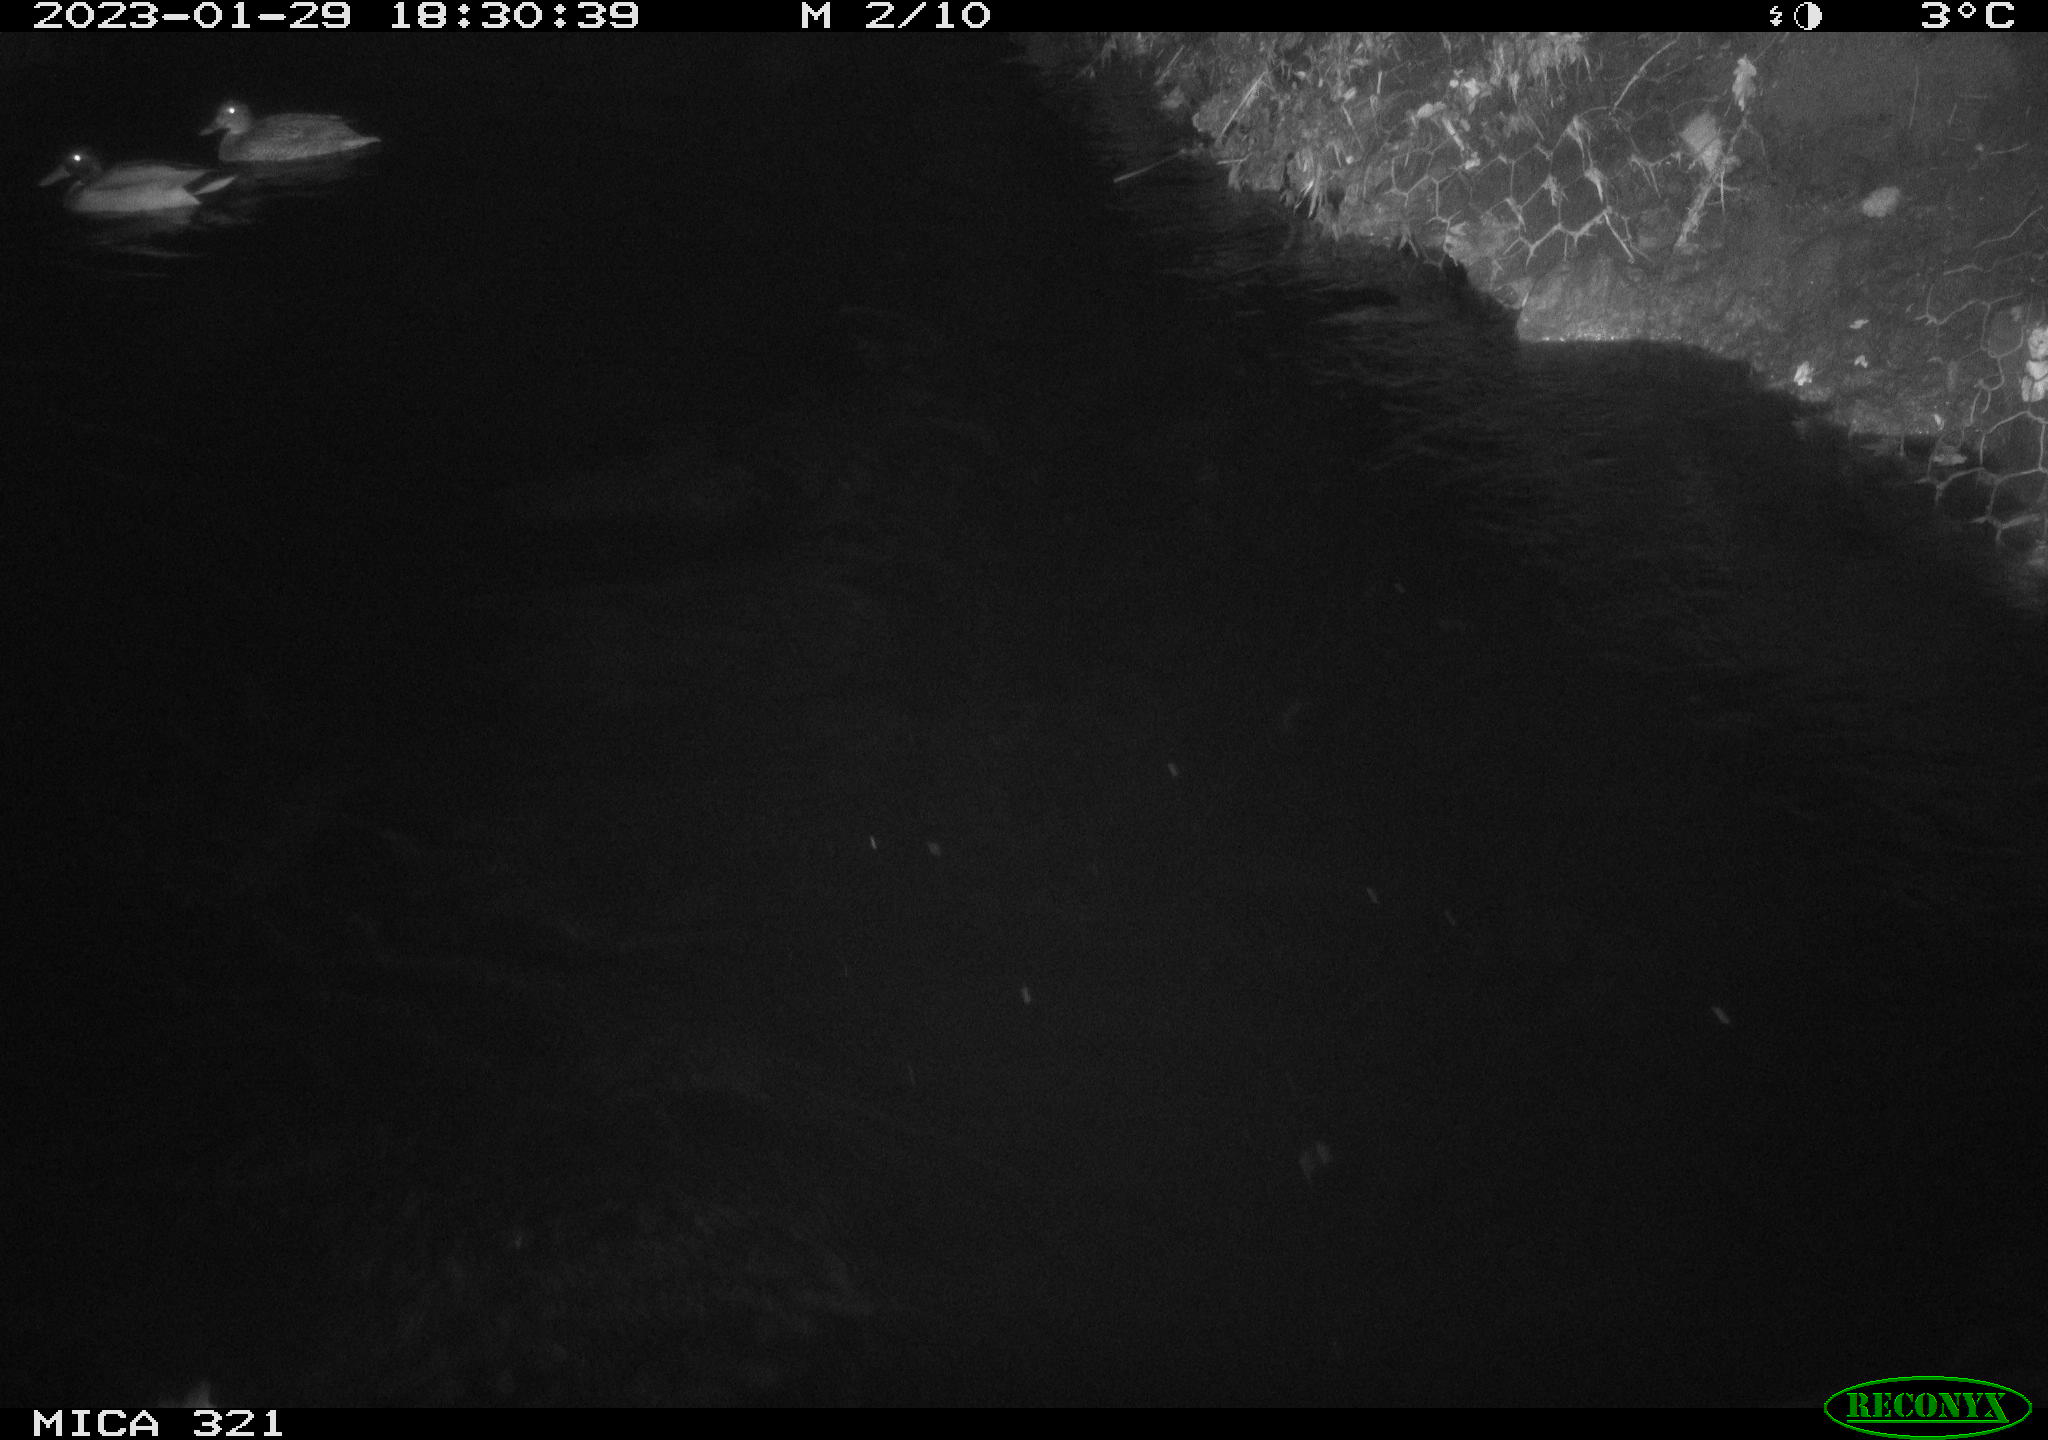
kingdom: Animalia
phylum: Chordata
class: Aves
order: Anseriformes
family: Anatidae
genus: Anas
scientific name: Anas
